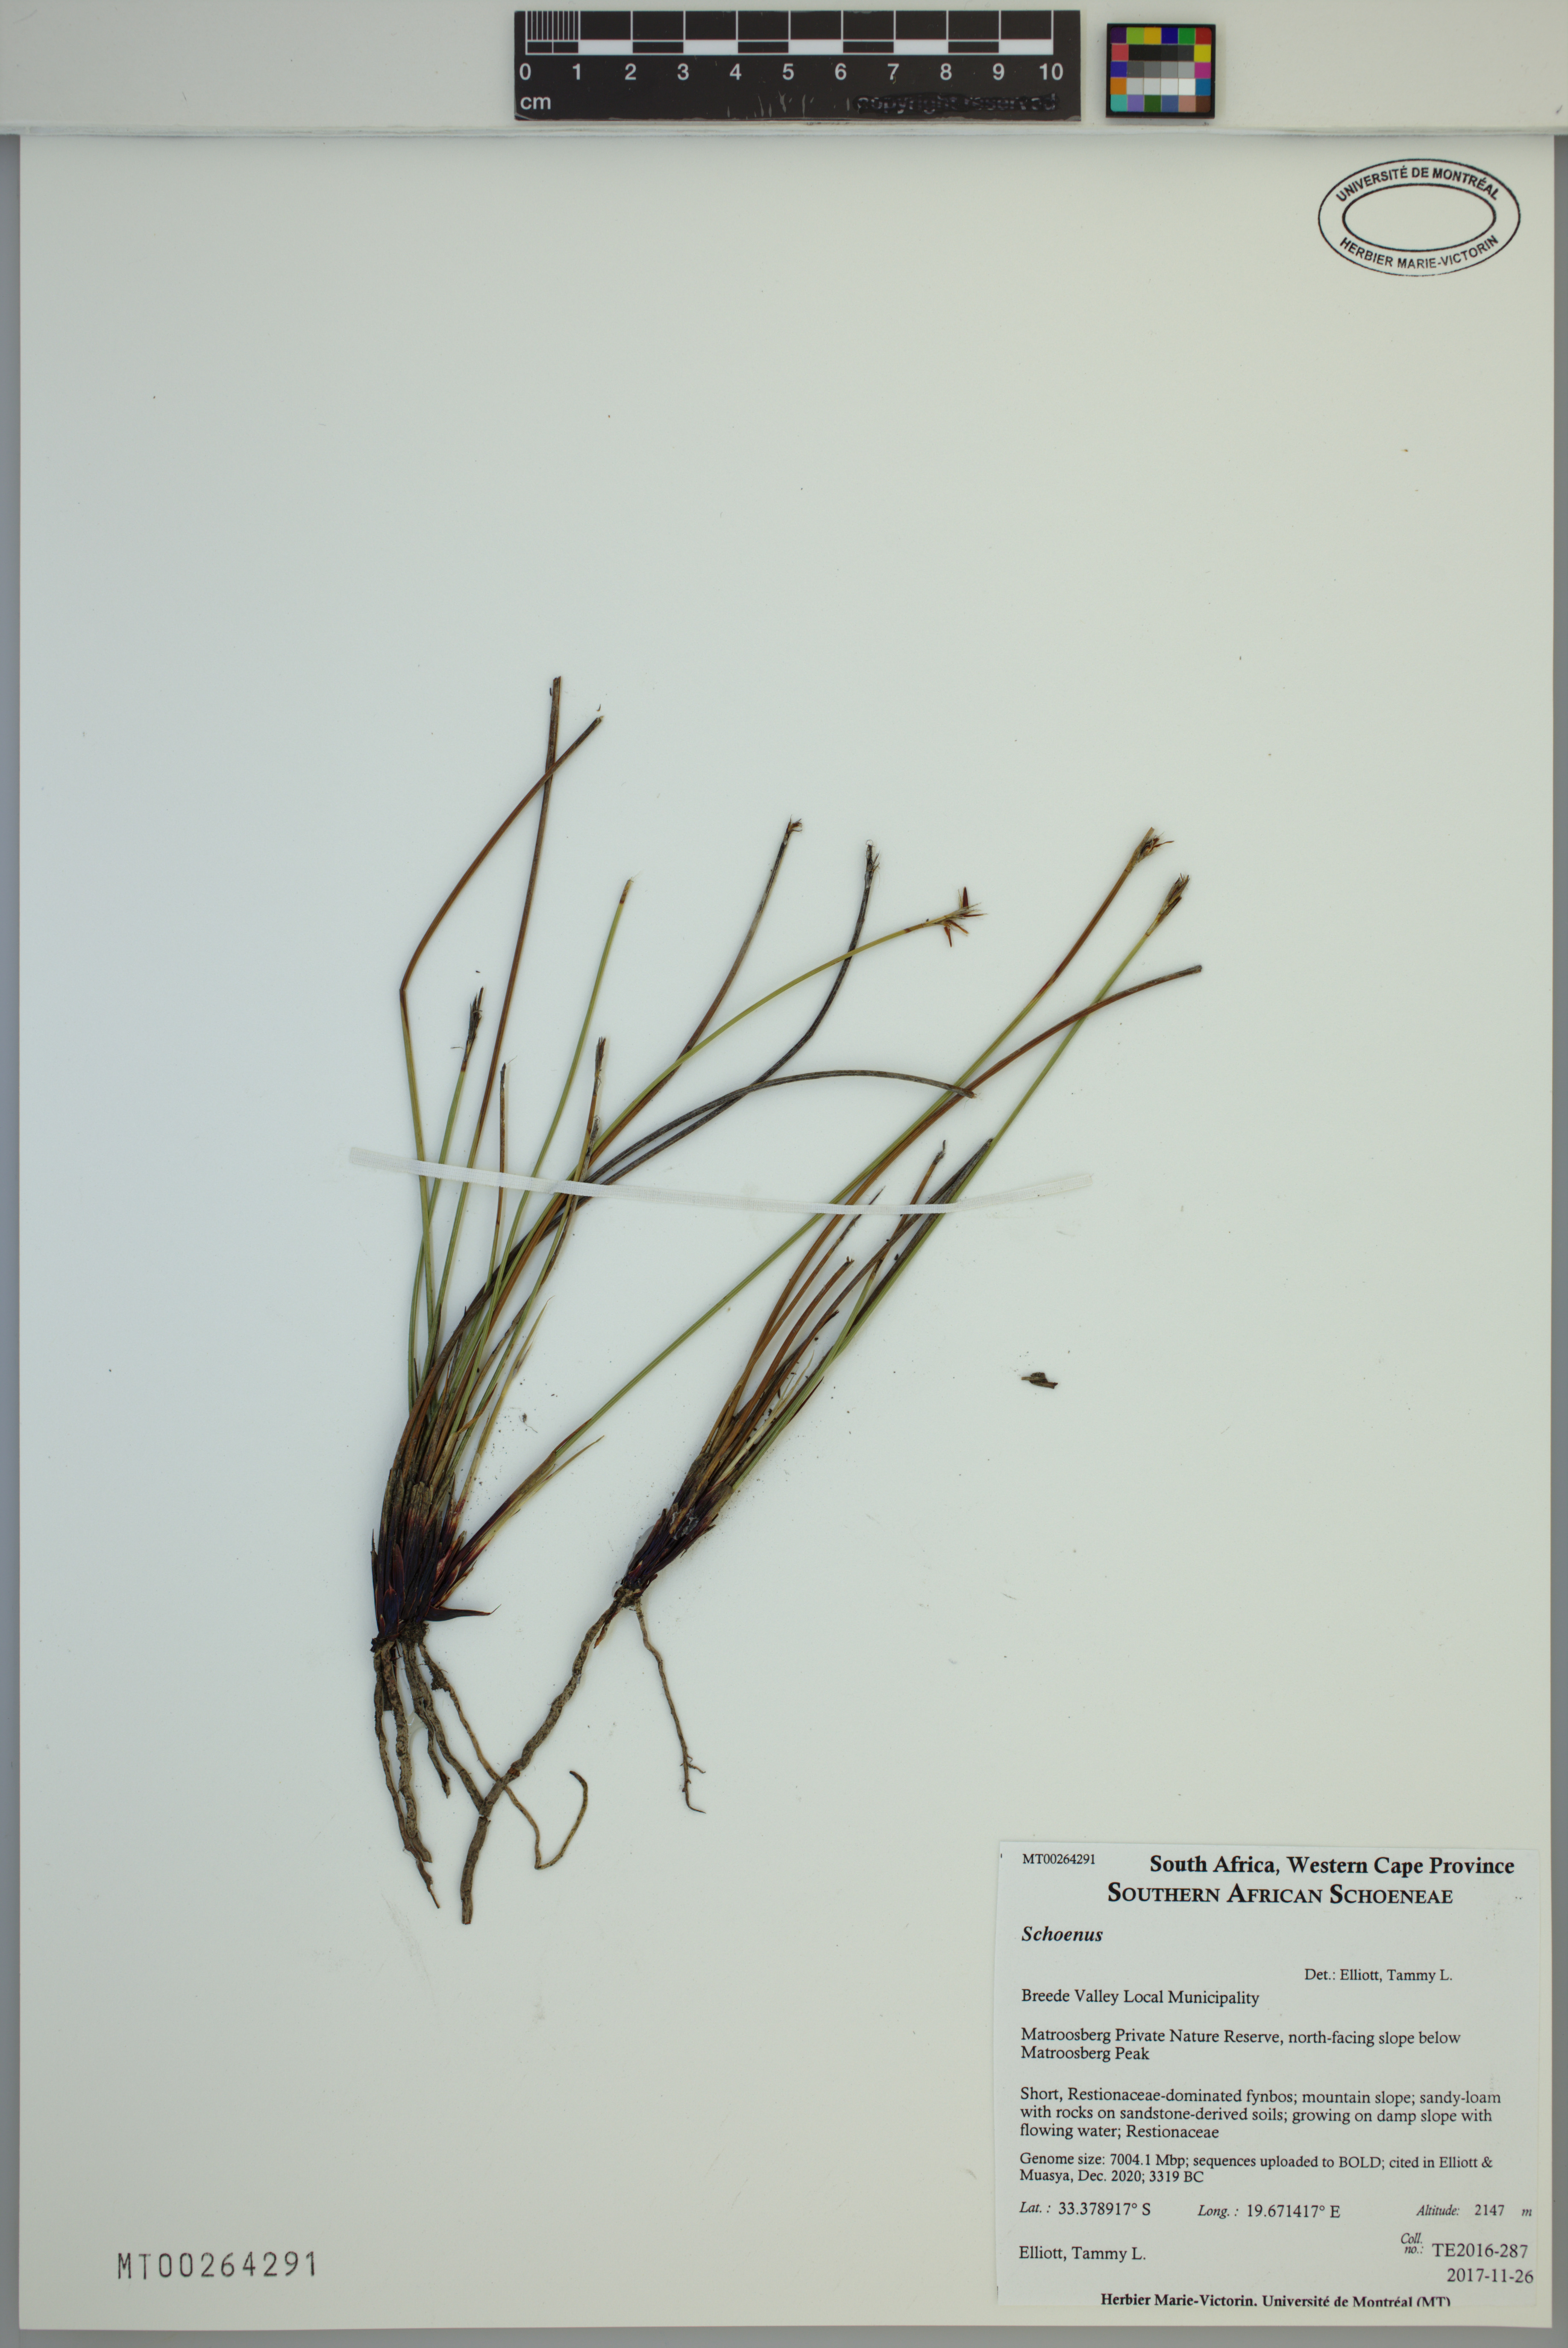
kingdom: Plantae
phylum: Tracheophyta
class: Liliopsida
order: Poales
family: Cyperaceae
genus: Schoenus
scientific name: Schoenus
